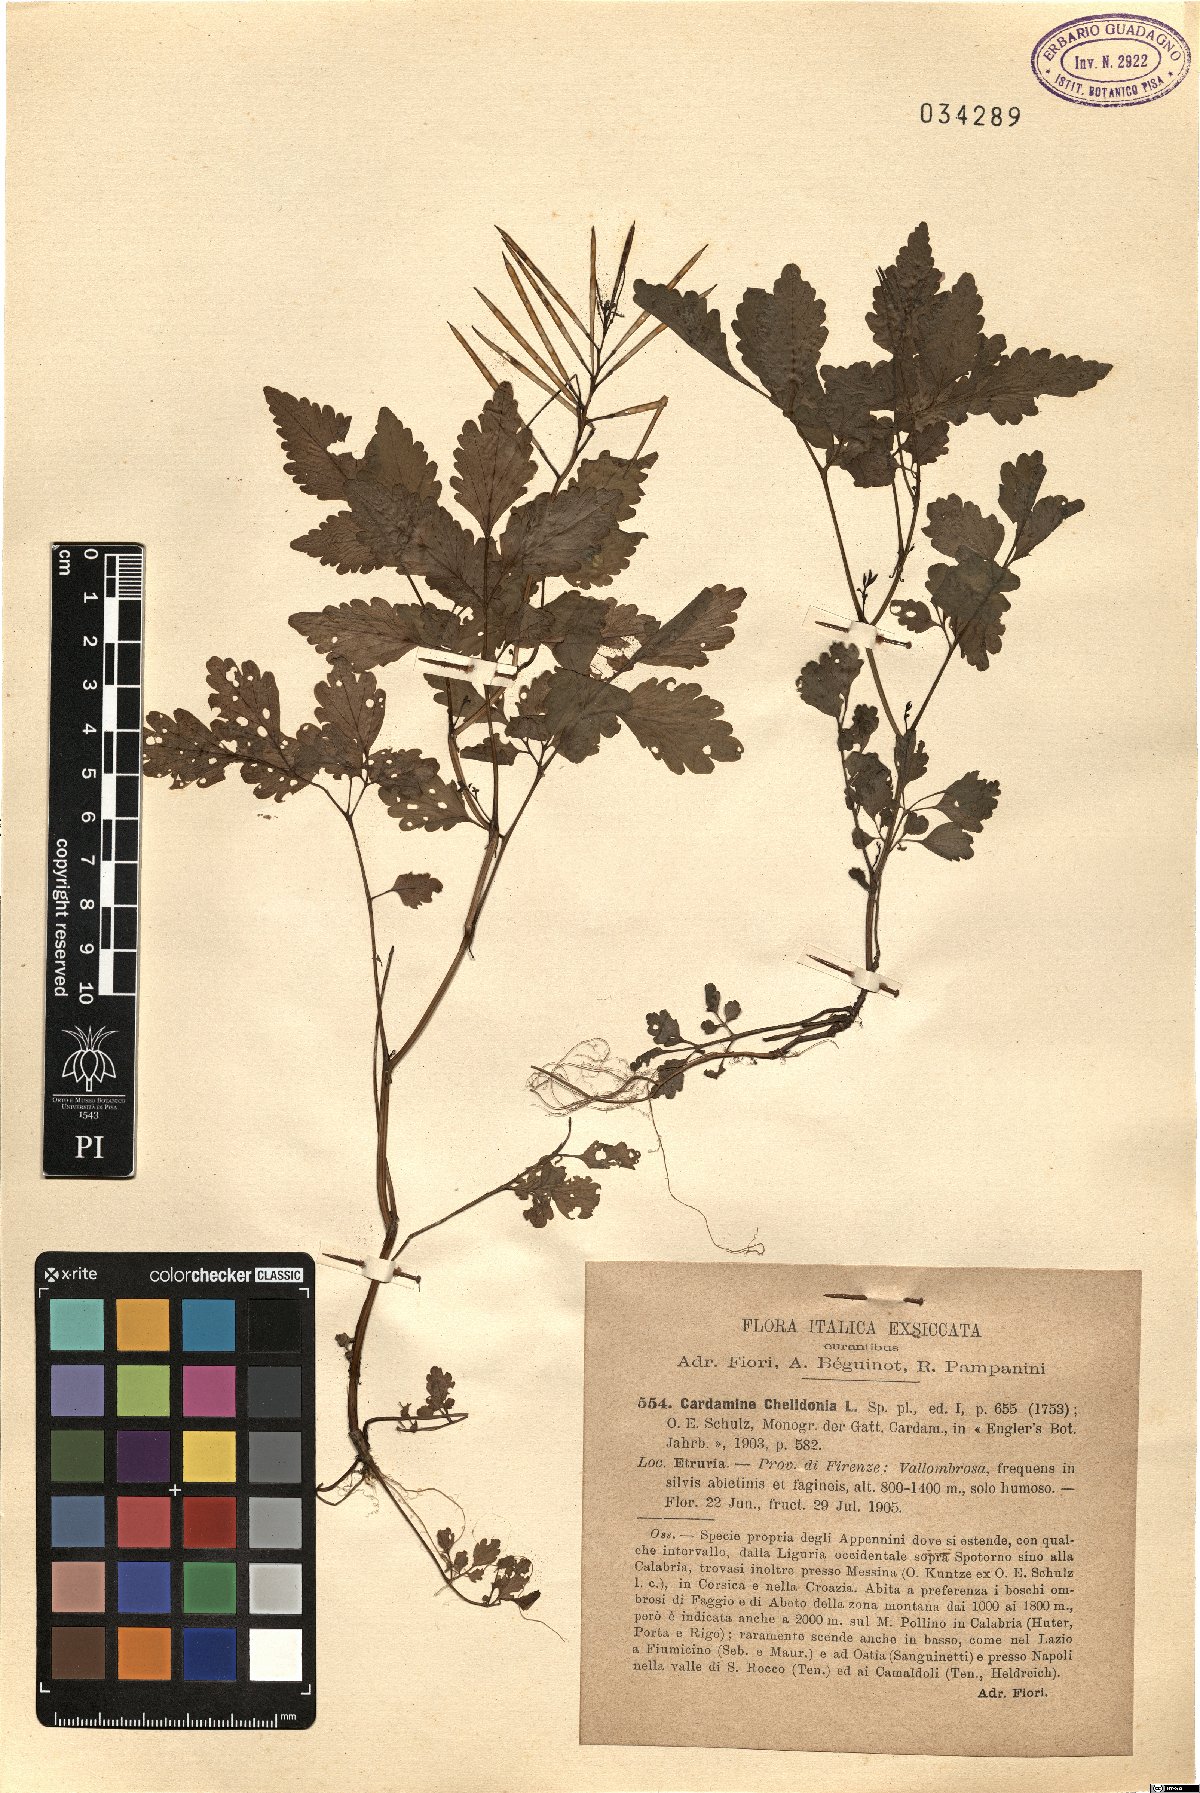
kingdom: Plantae
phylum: Tracheophyta
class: Magnoliopsida
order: Brassicales
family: Brassicaceae
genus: Cardamine
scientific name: Cardamine chelidonia
